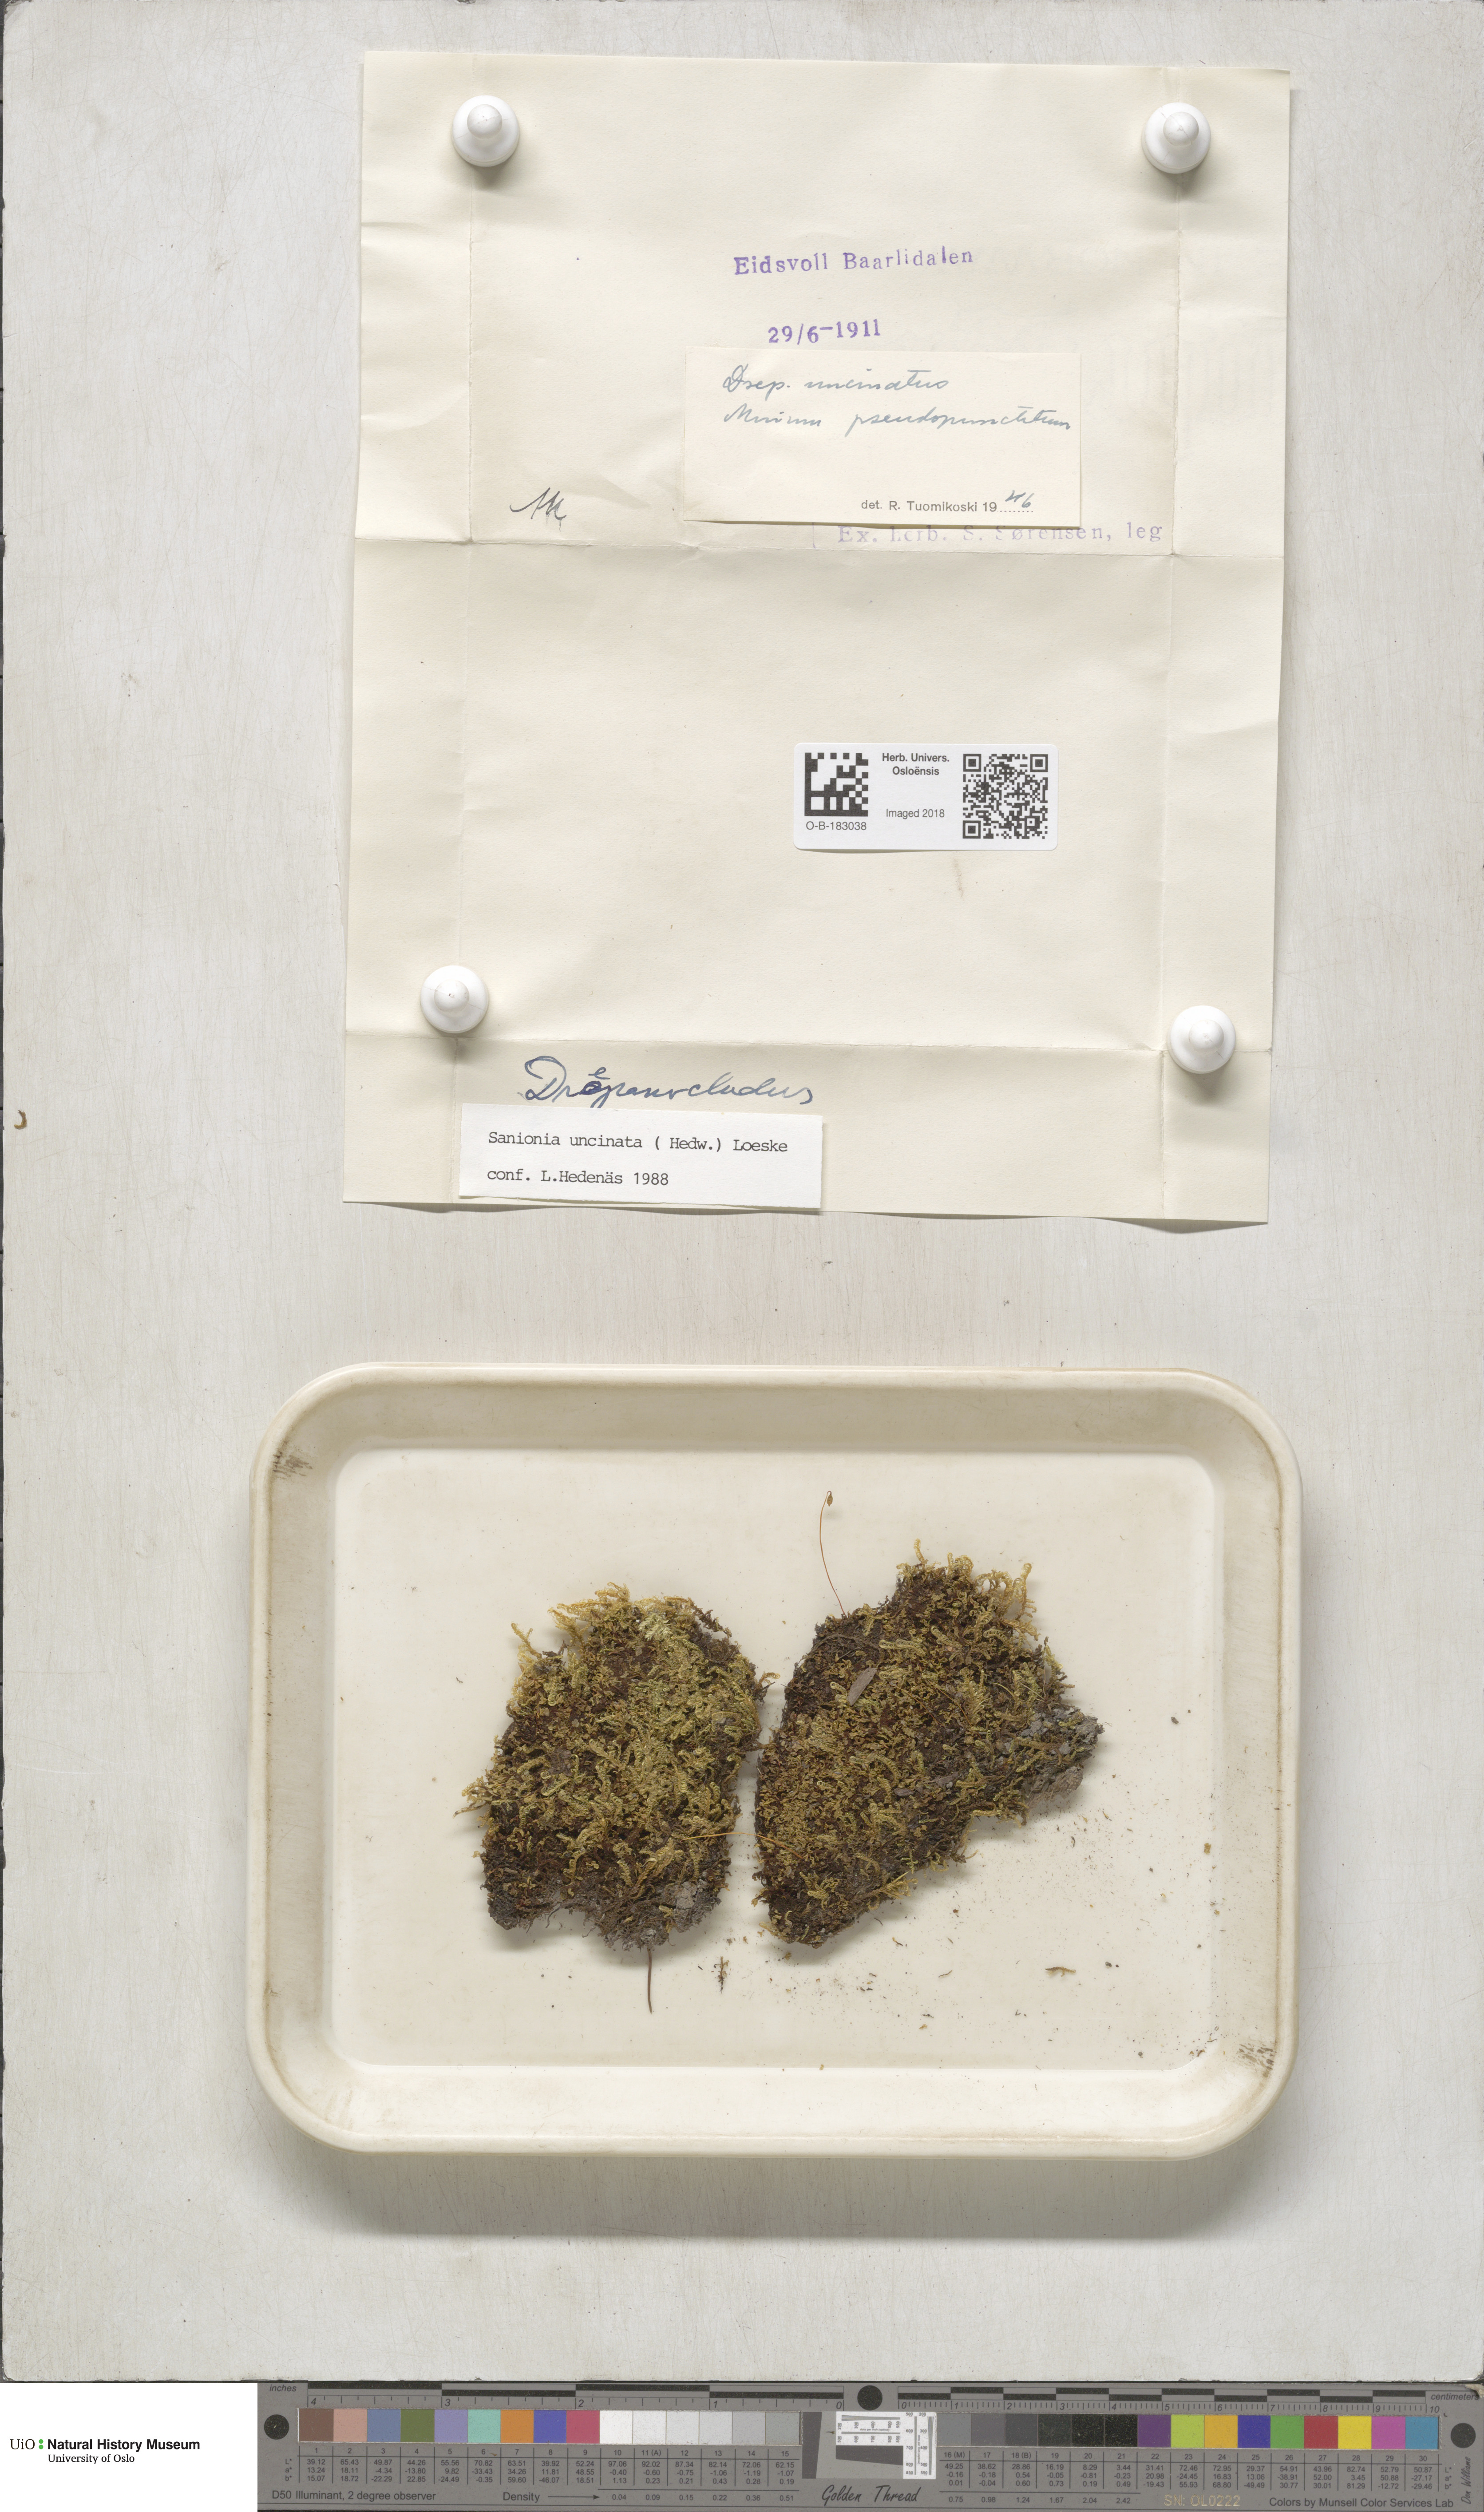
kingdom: Plantae
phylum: Bryophyta
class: Bryopsida
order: Hypnales
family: Scorpidiaceae
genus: Sanionia
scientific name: Sanionia uncinata
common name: Sickle moss
